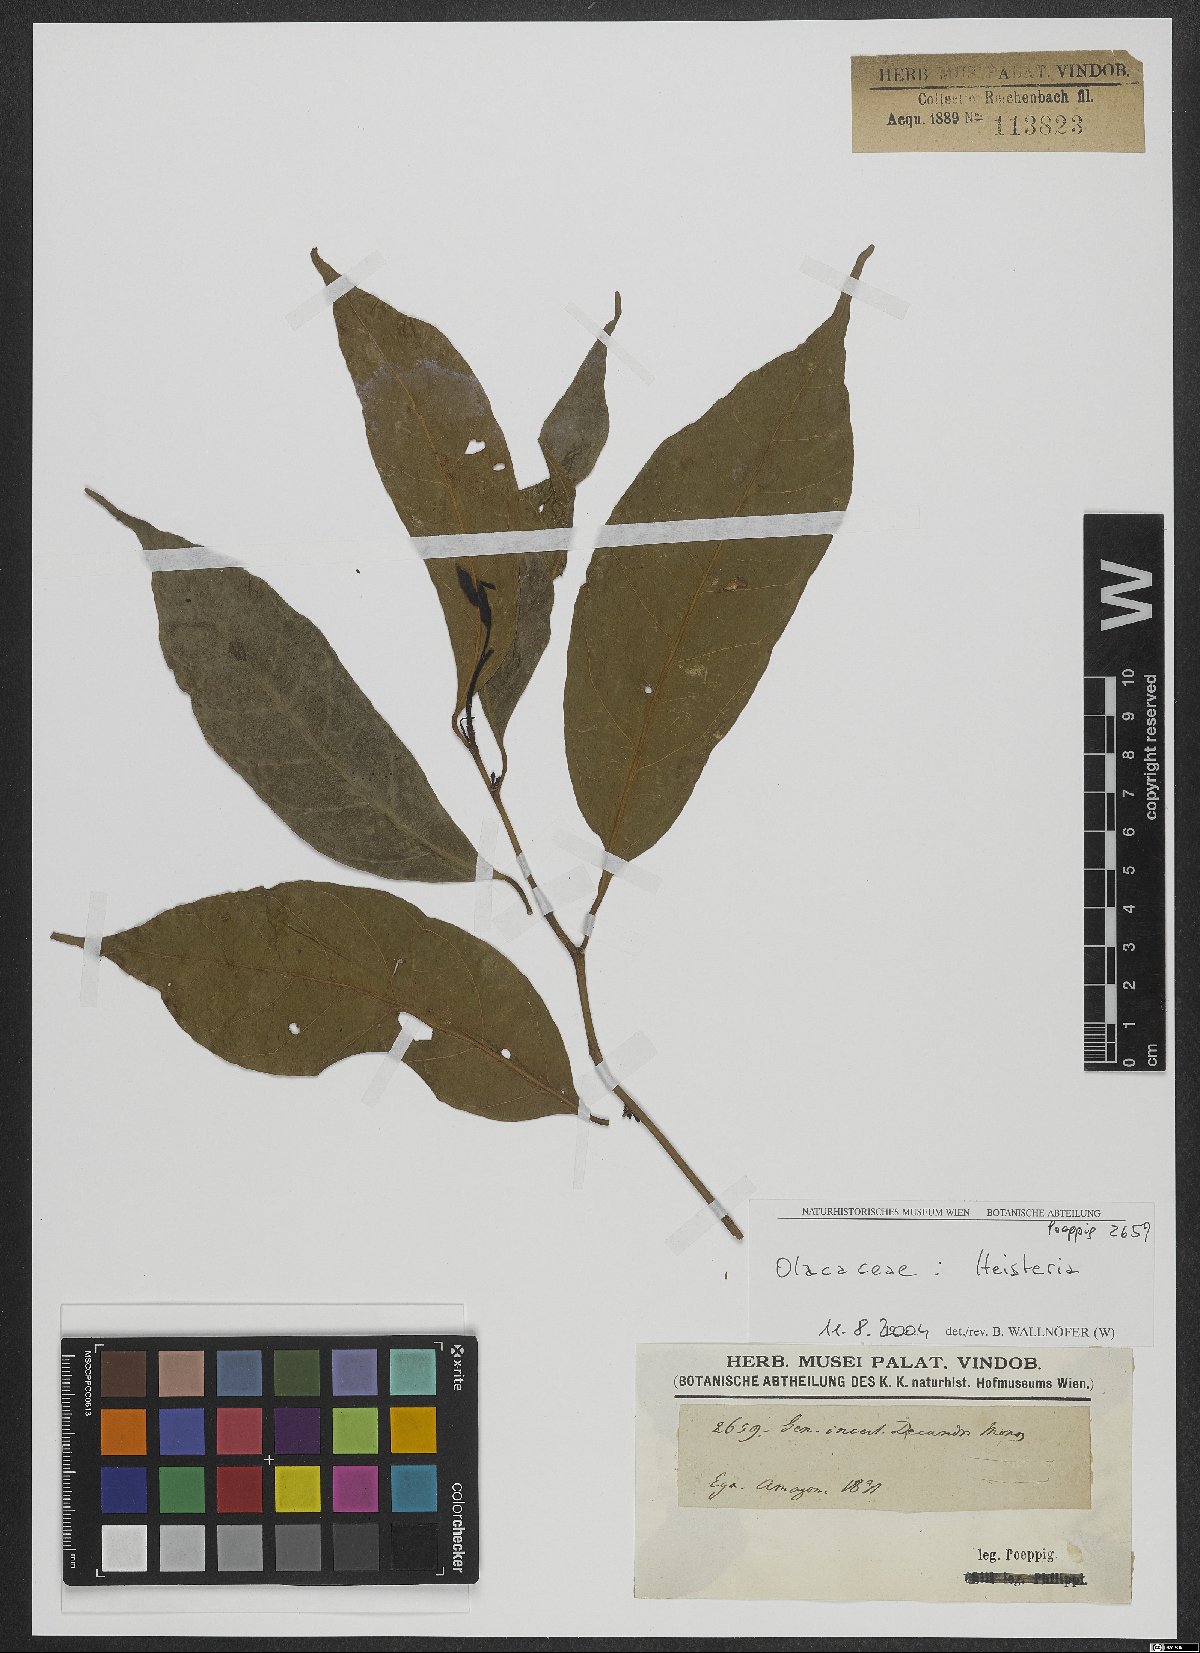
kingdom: Plantae
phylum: Tracheophyta
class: Magnoliopsida
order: Santalales
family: Erythropalaceae
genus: Heisteria
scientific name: Heisteria
